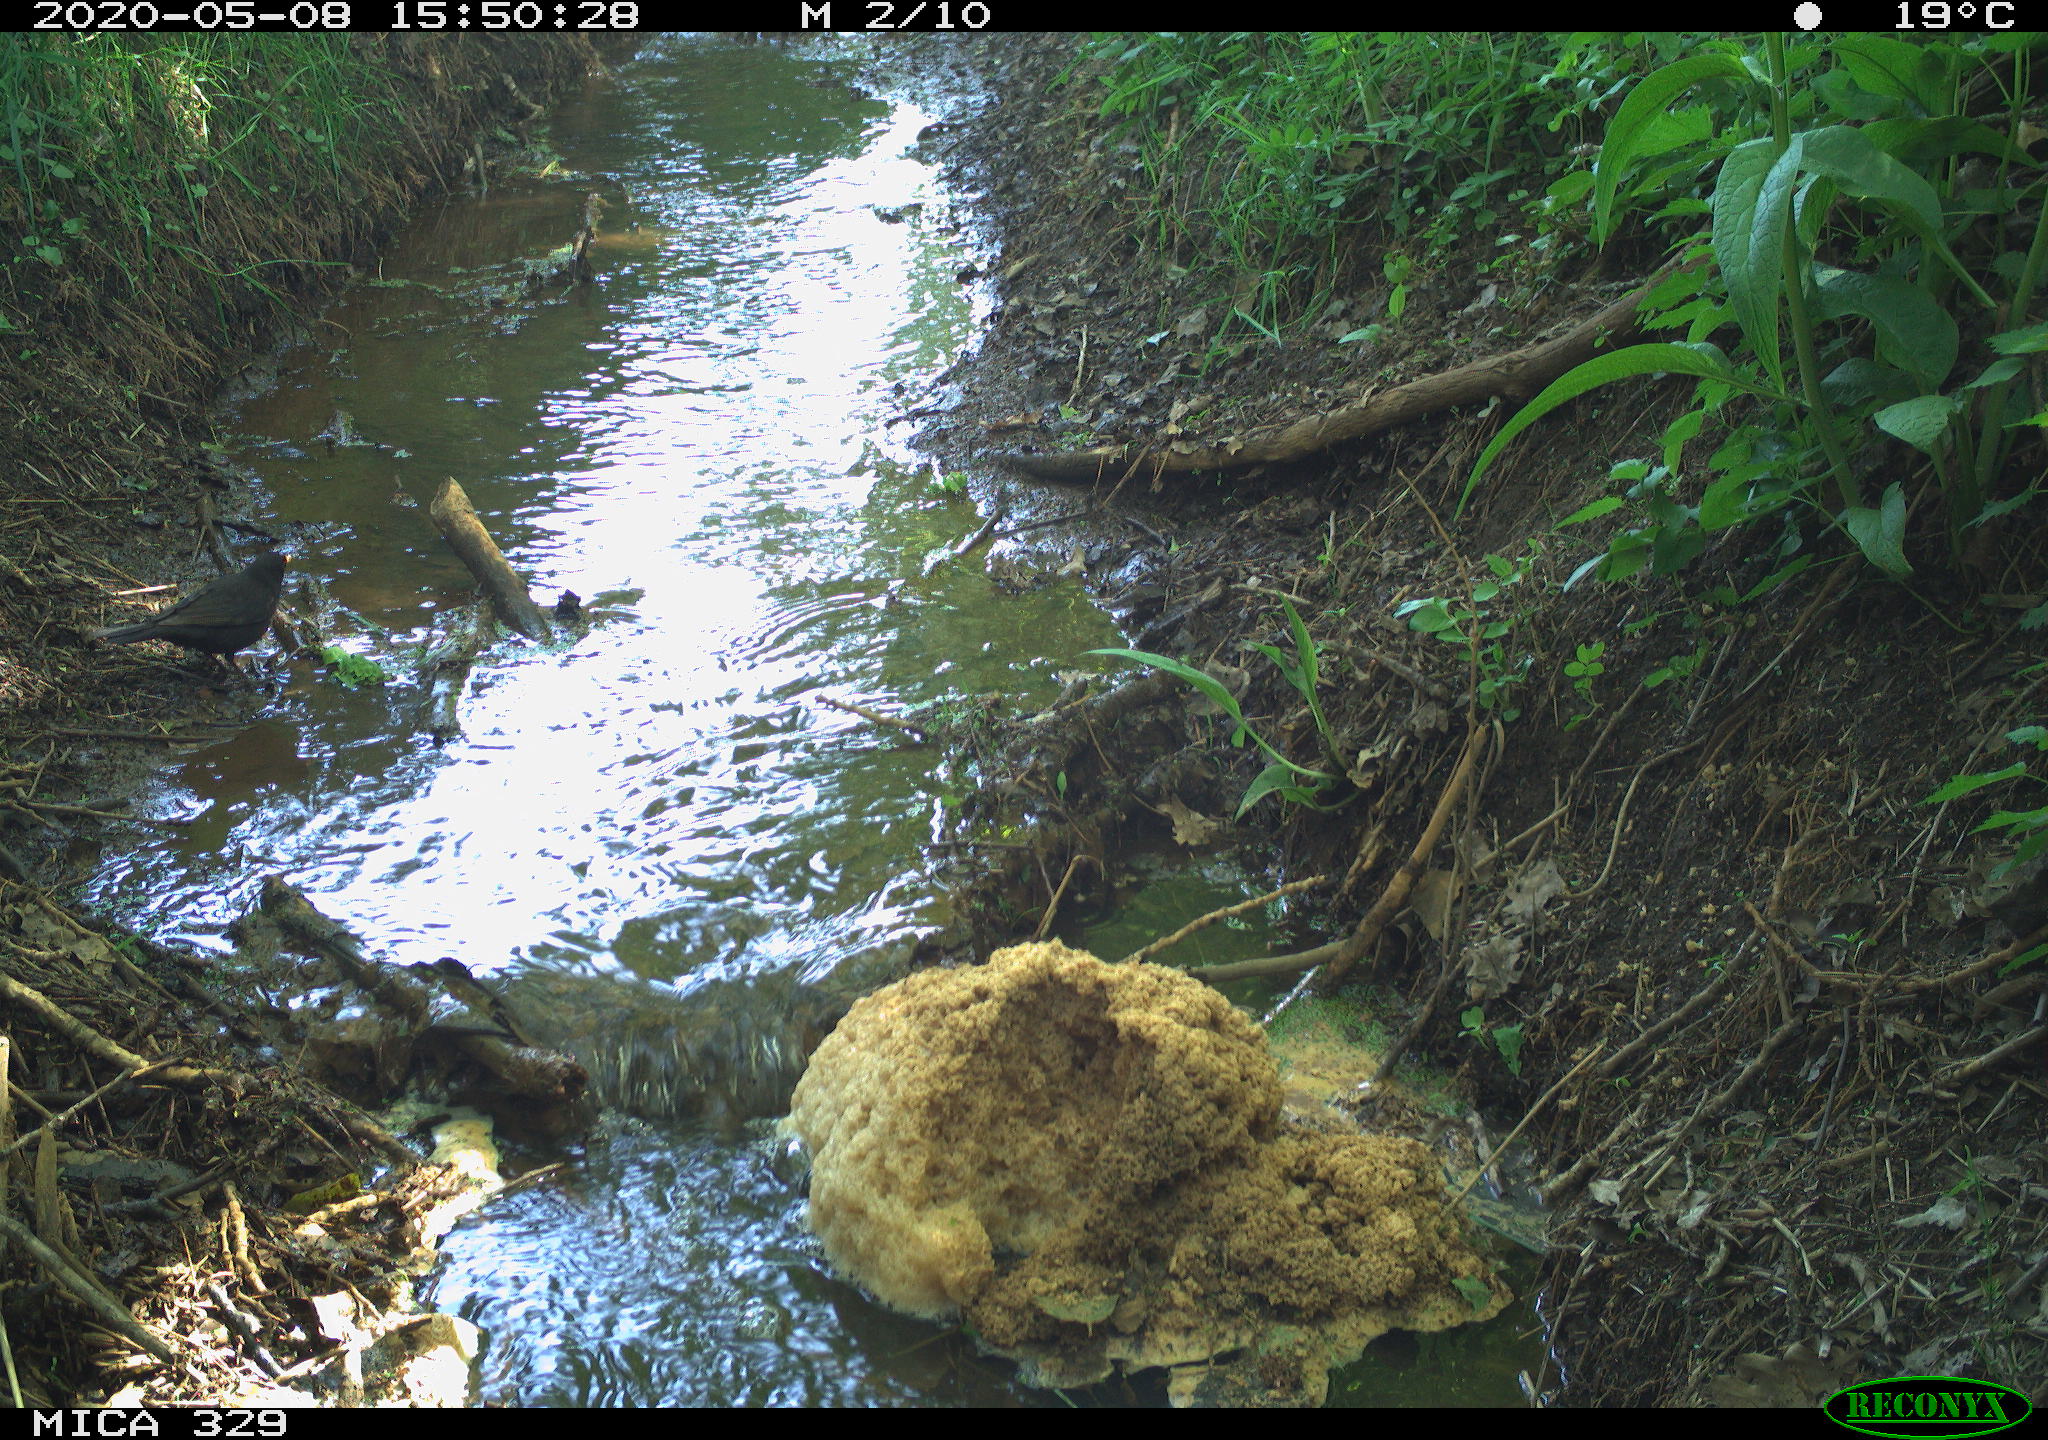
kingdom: Animalia
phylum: Chordata
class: Aves
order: Passeriformes
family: Turdidae
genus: Turdus
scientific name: Turdus merula
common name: Common blackbird
